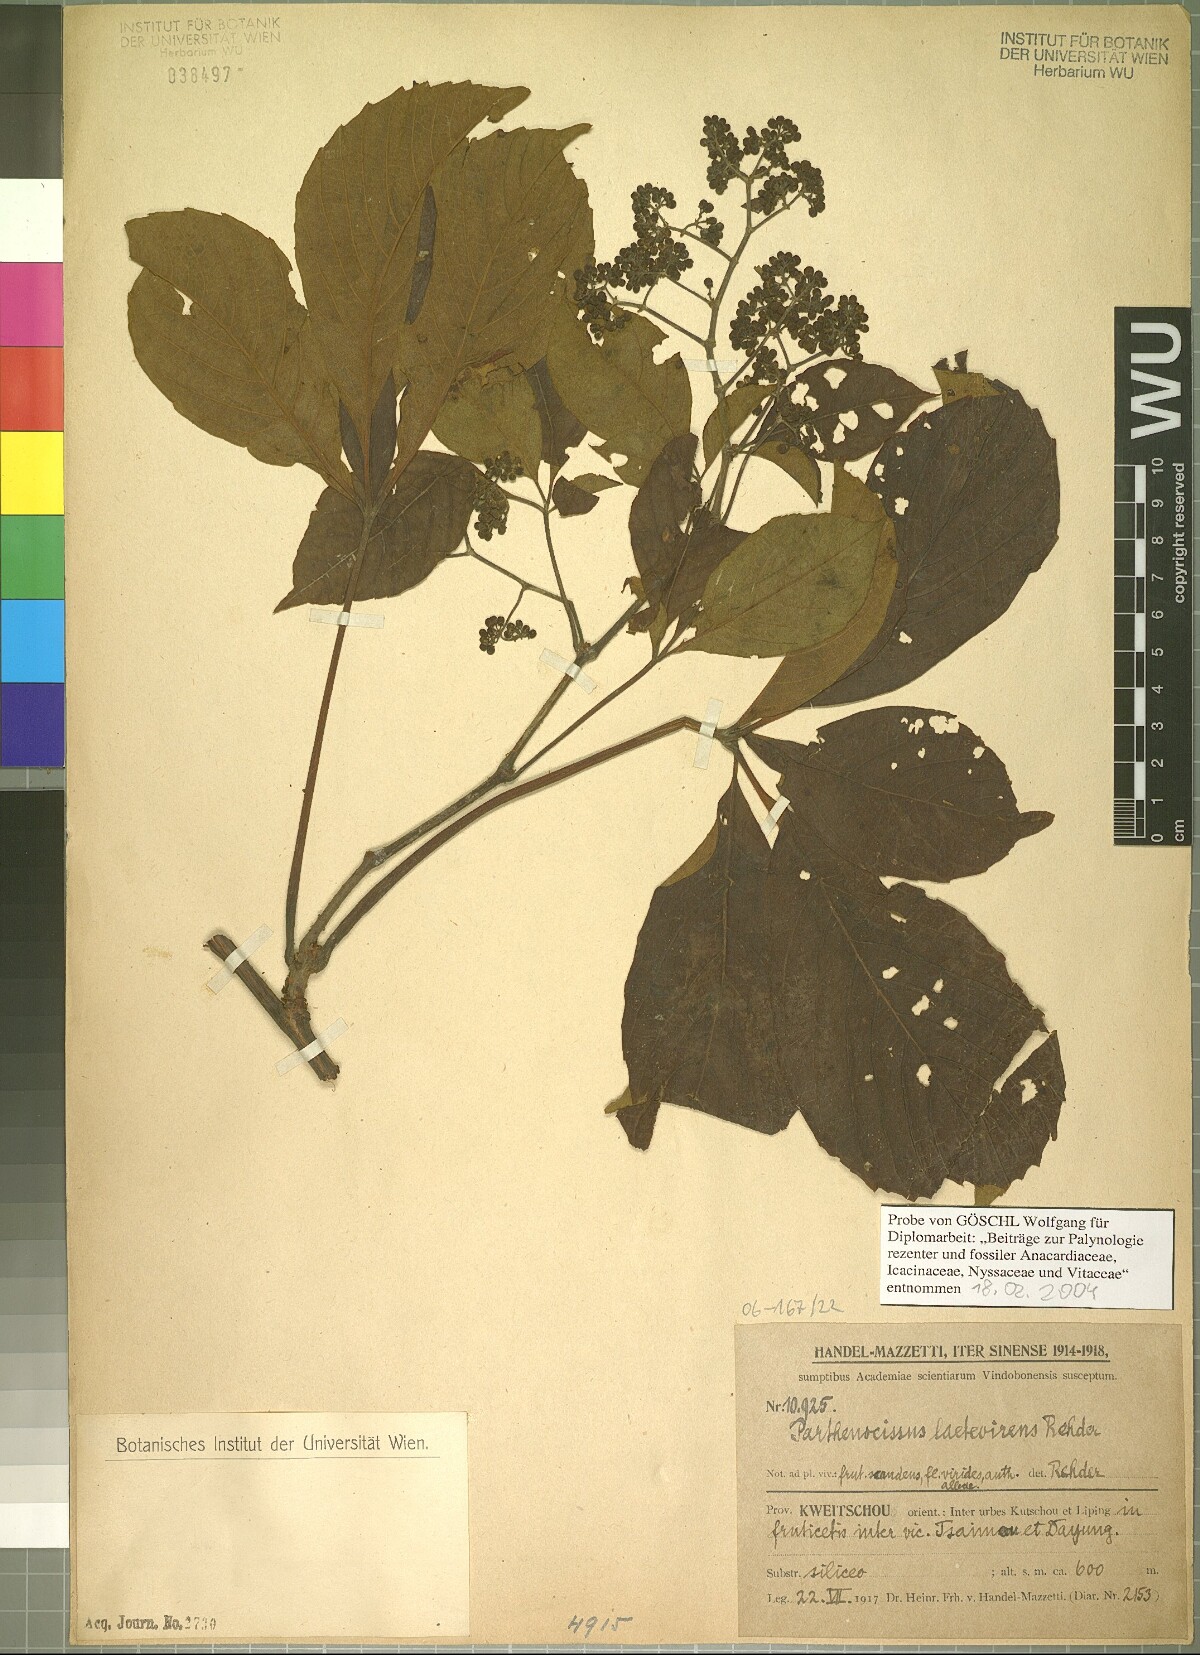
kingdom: Plantae
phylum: Tracheophyta
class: Magnoliopsida
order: Vitales
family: Vitaceae
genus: Parthenocissus
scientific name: Parthenocissus laetevirens
